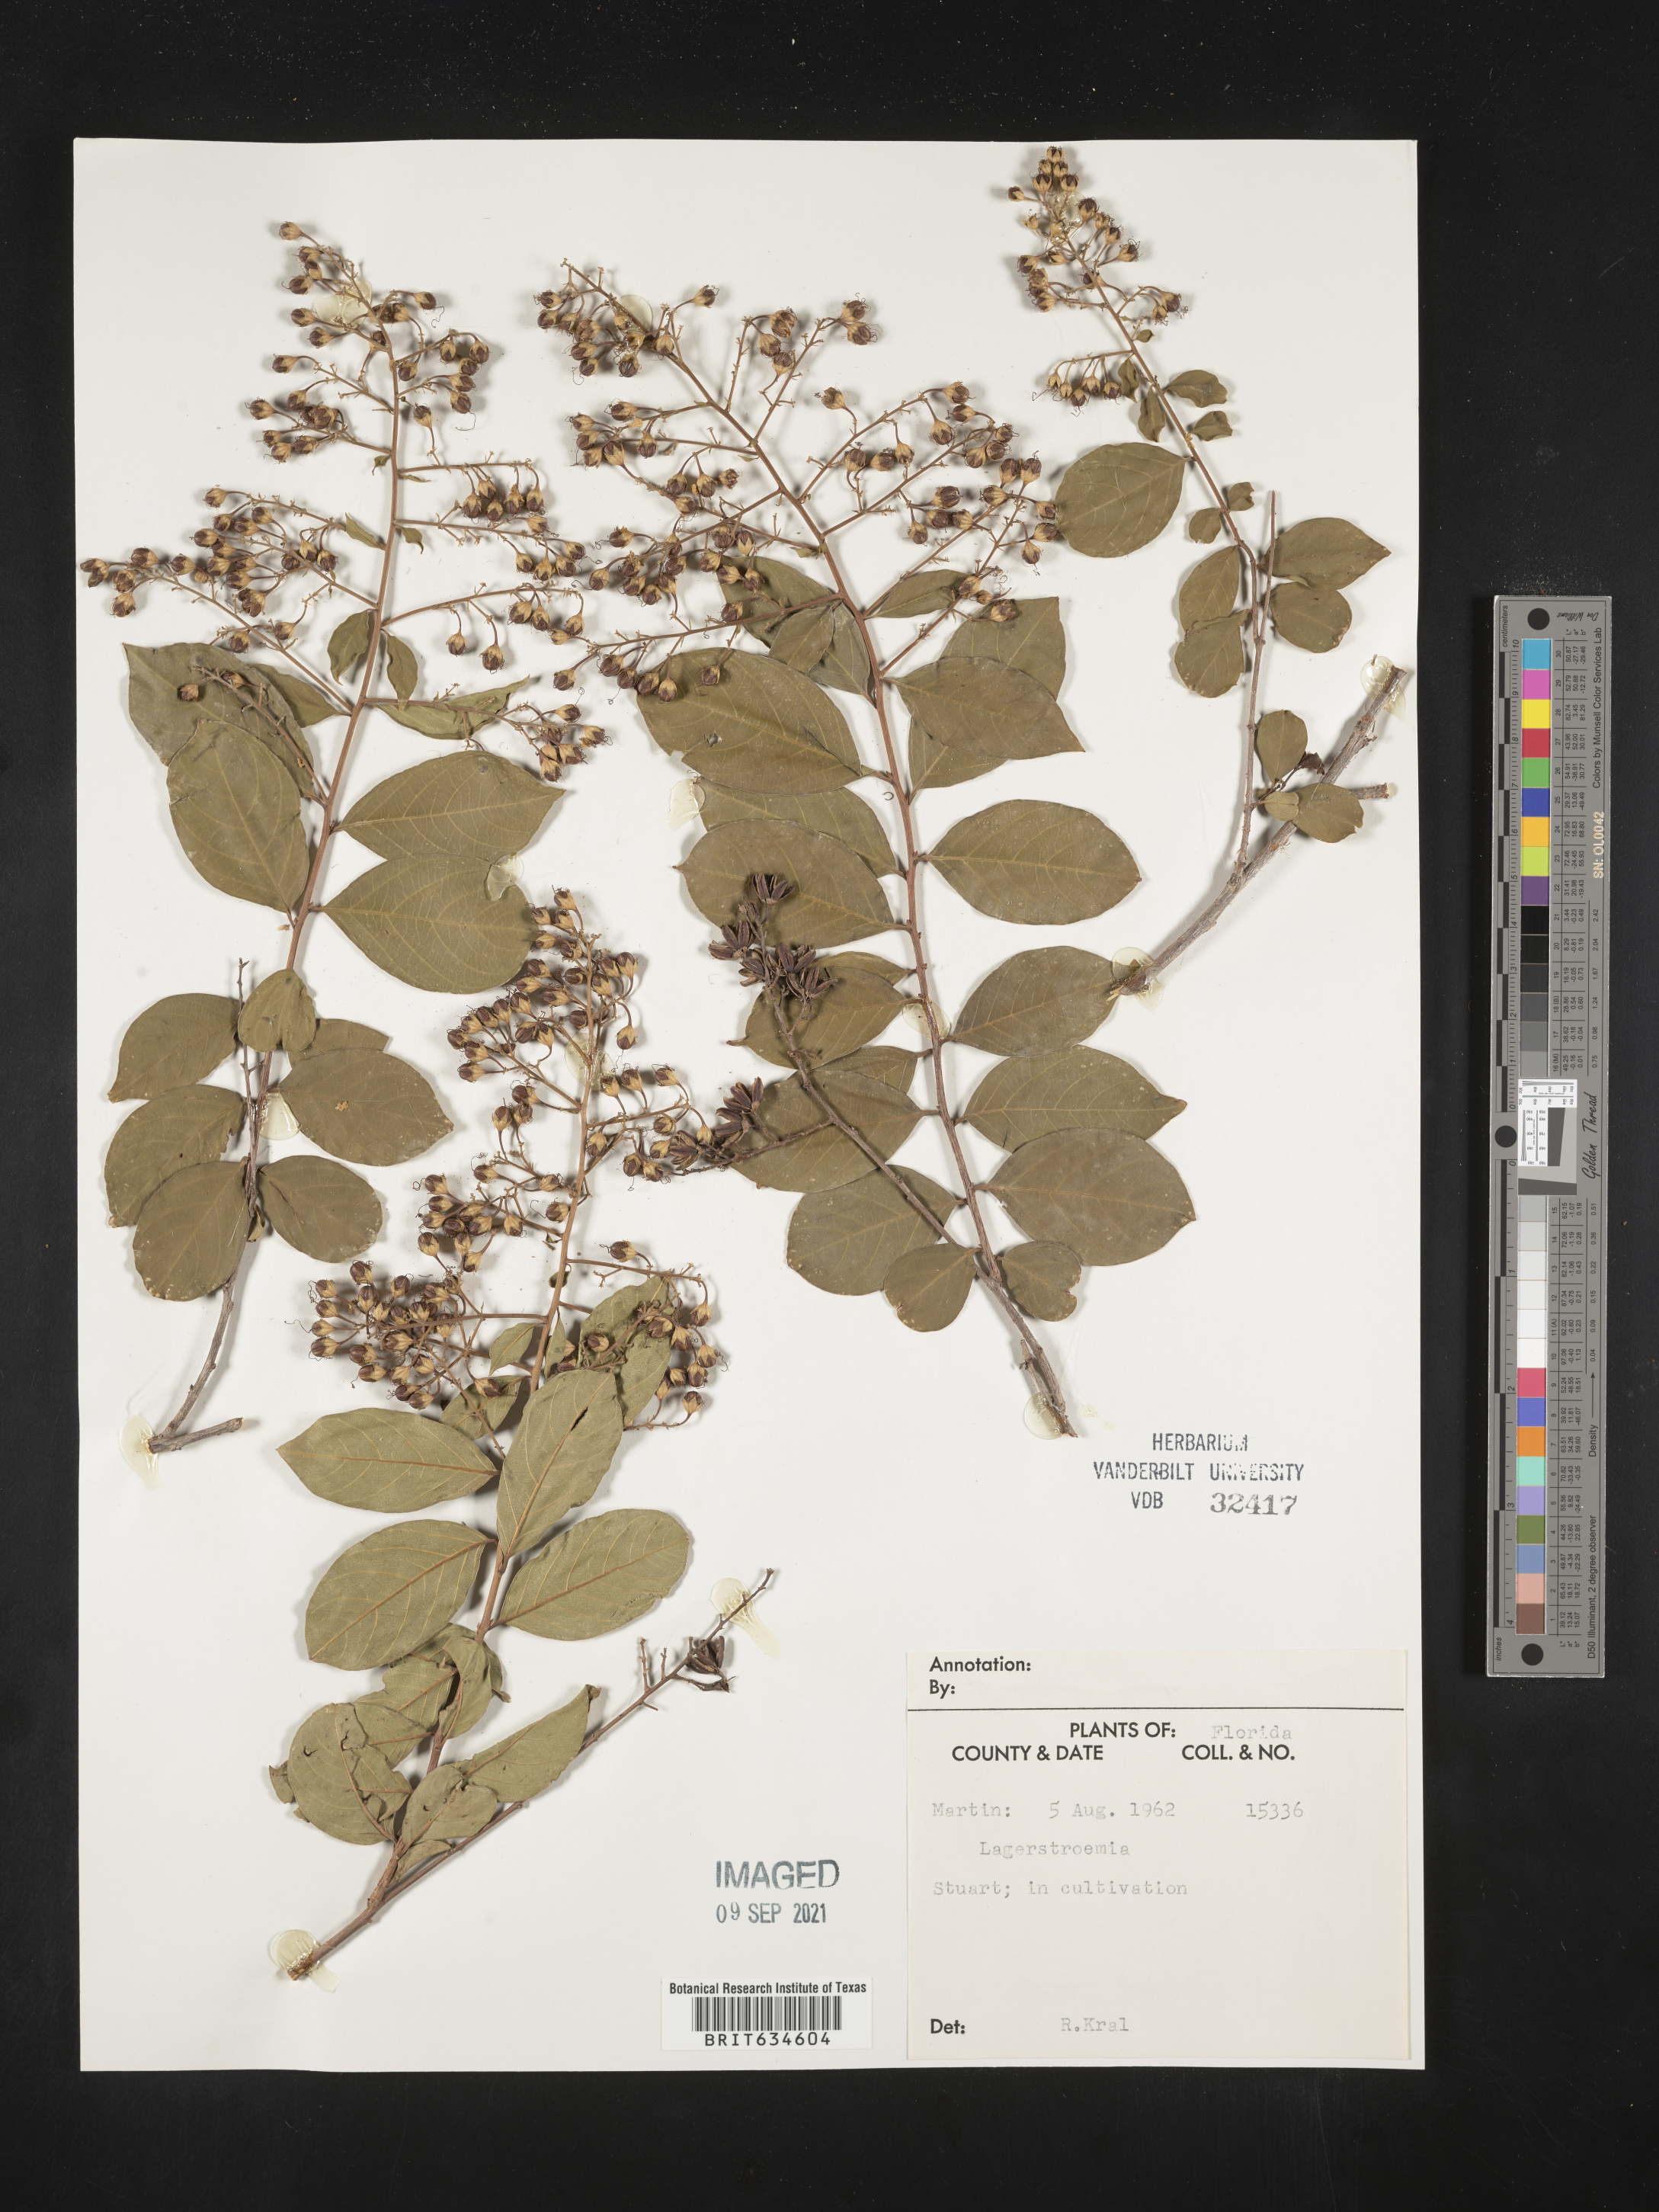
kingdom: Plantae
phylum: Tracheophyta
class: Magnoliopsida
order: Myrtales
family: Lythraceae
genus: Lagerstroemia
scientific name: Lagerstroemia
